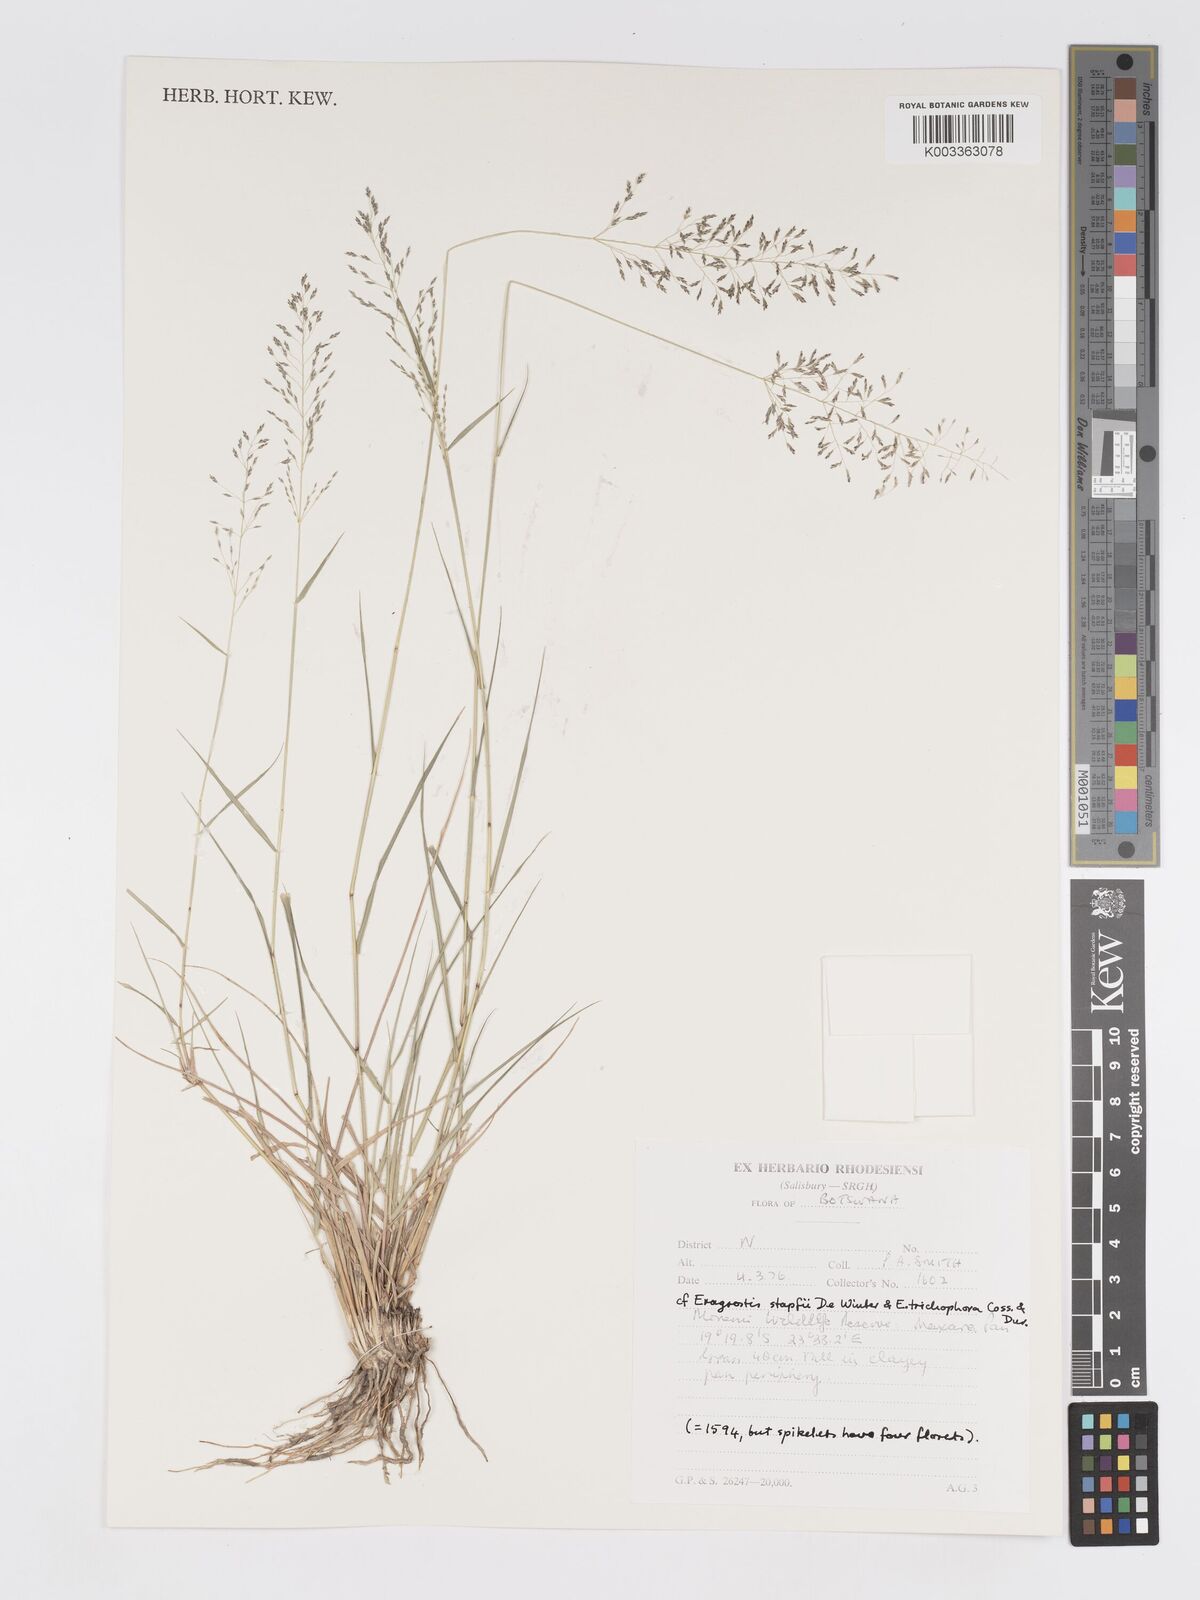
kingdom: Plantae
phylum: Tracheophyta
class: Liliopsida
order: Poales
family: Poaceae
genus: Eragrostis
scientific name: Eragrostis cylindriflora
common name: Cylinderflower lovegrass
